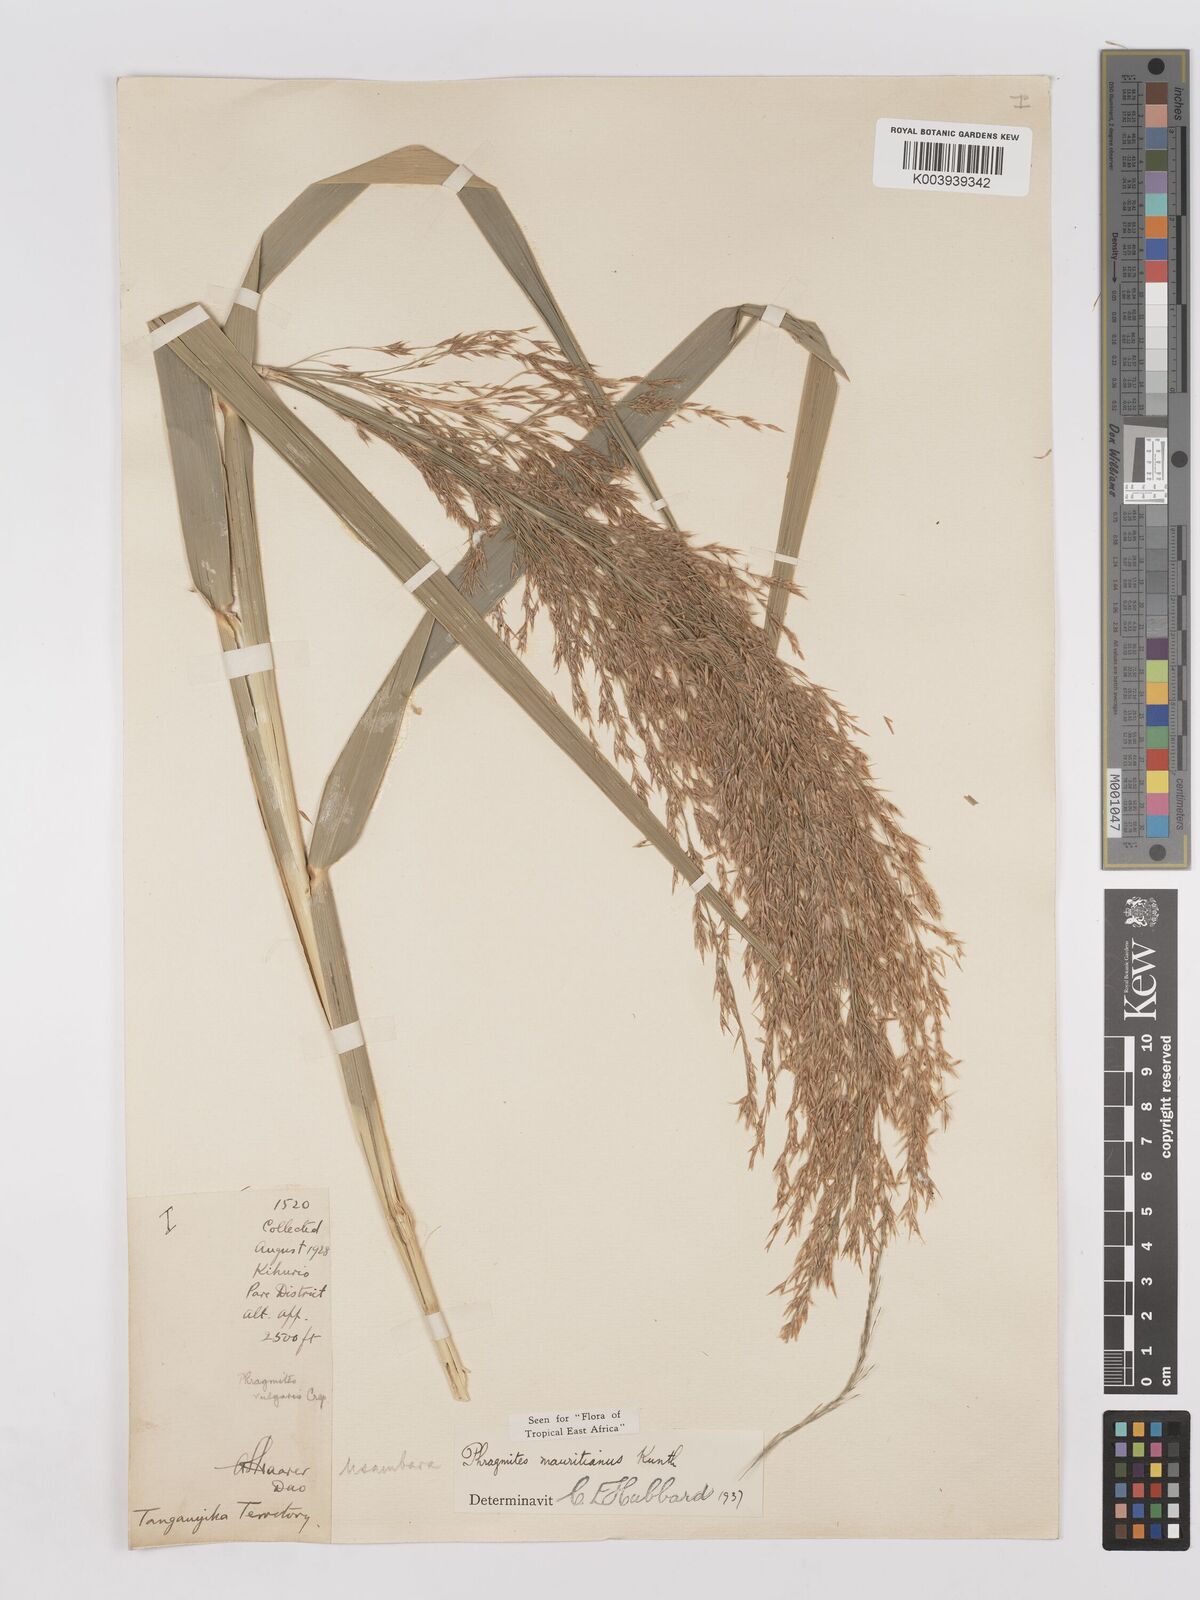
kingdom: Plantae
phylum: Tracheophyta
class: Liliopsida
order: Poales
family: Poaceae
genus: Phragmites
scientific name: Phragmites mauritianus
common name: Reed grass
